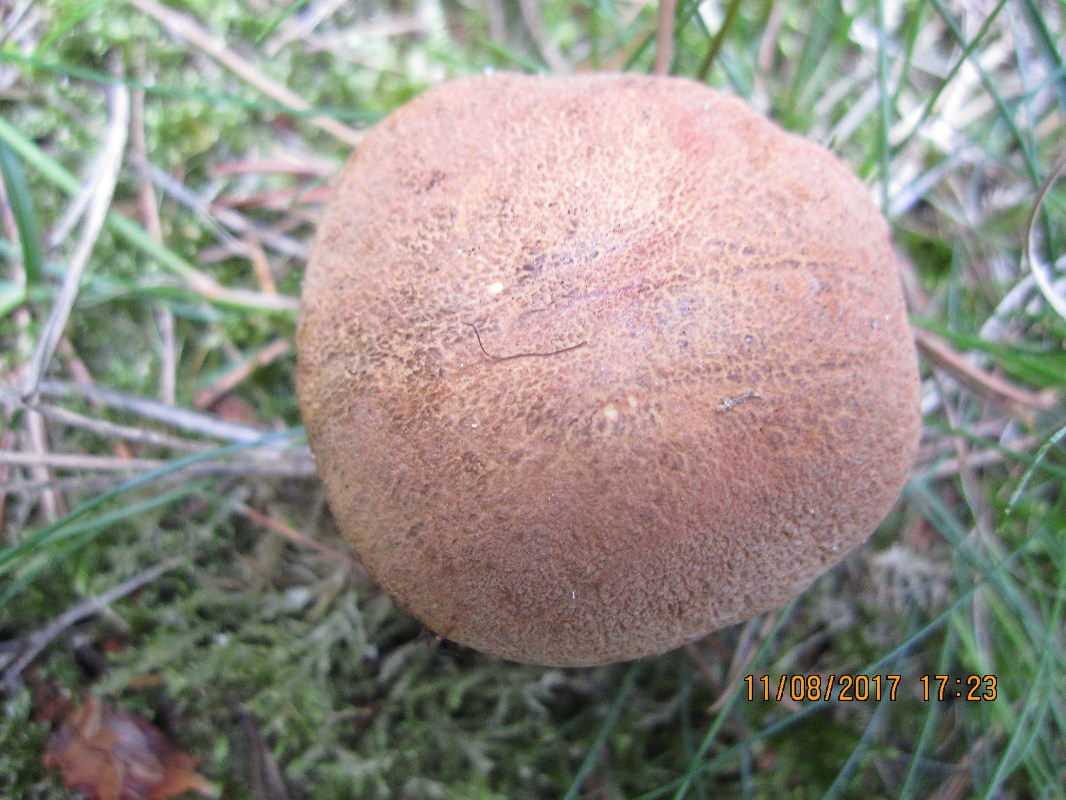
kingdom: Fungi
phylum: Basidiomycota
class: Agaricomycetes
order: Boletales
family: Suillaceae
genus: Suillus
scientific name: Suillus variegatus
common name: broget slimrørhat
